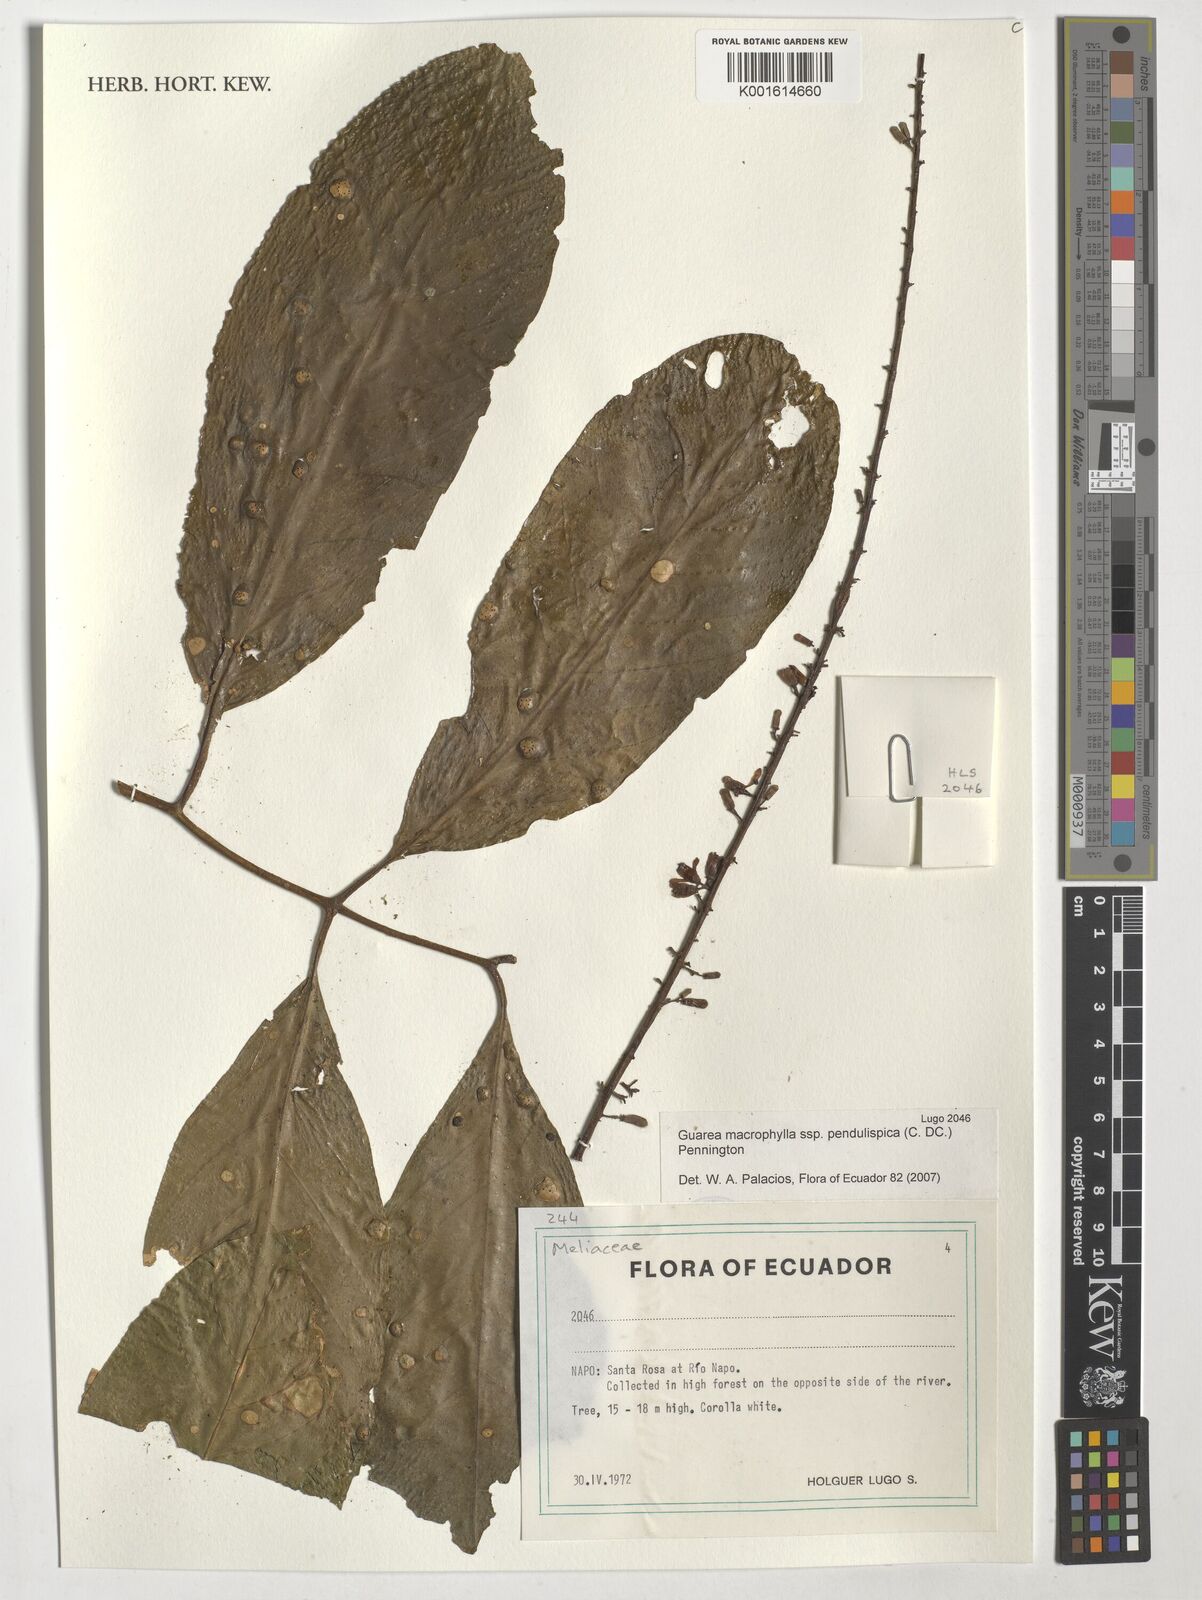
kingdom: Plantae
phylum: Tracheophyta
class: Magnoliopsida
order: Sapindales
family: Meliaceae
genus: Guarea
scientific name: Guarea macrophylla
